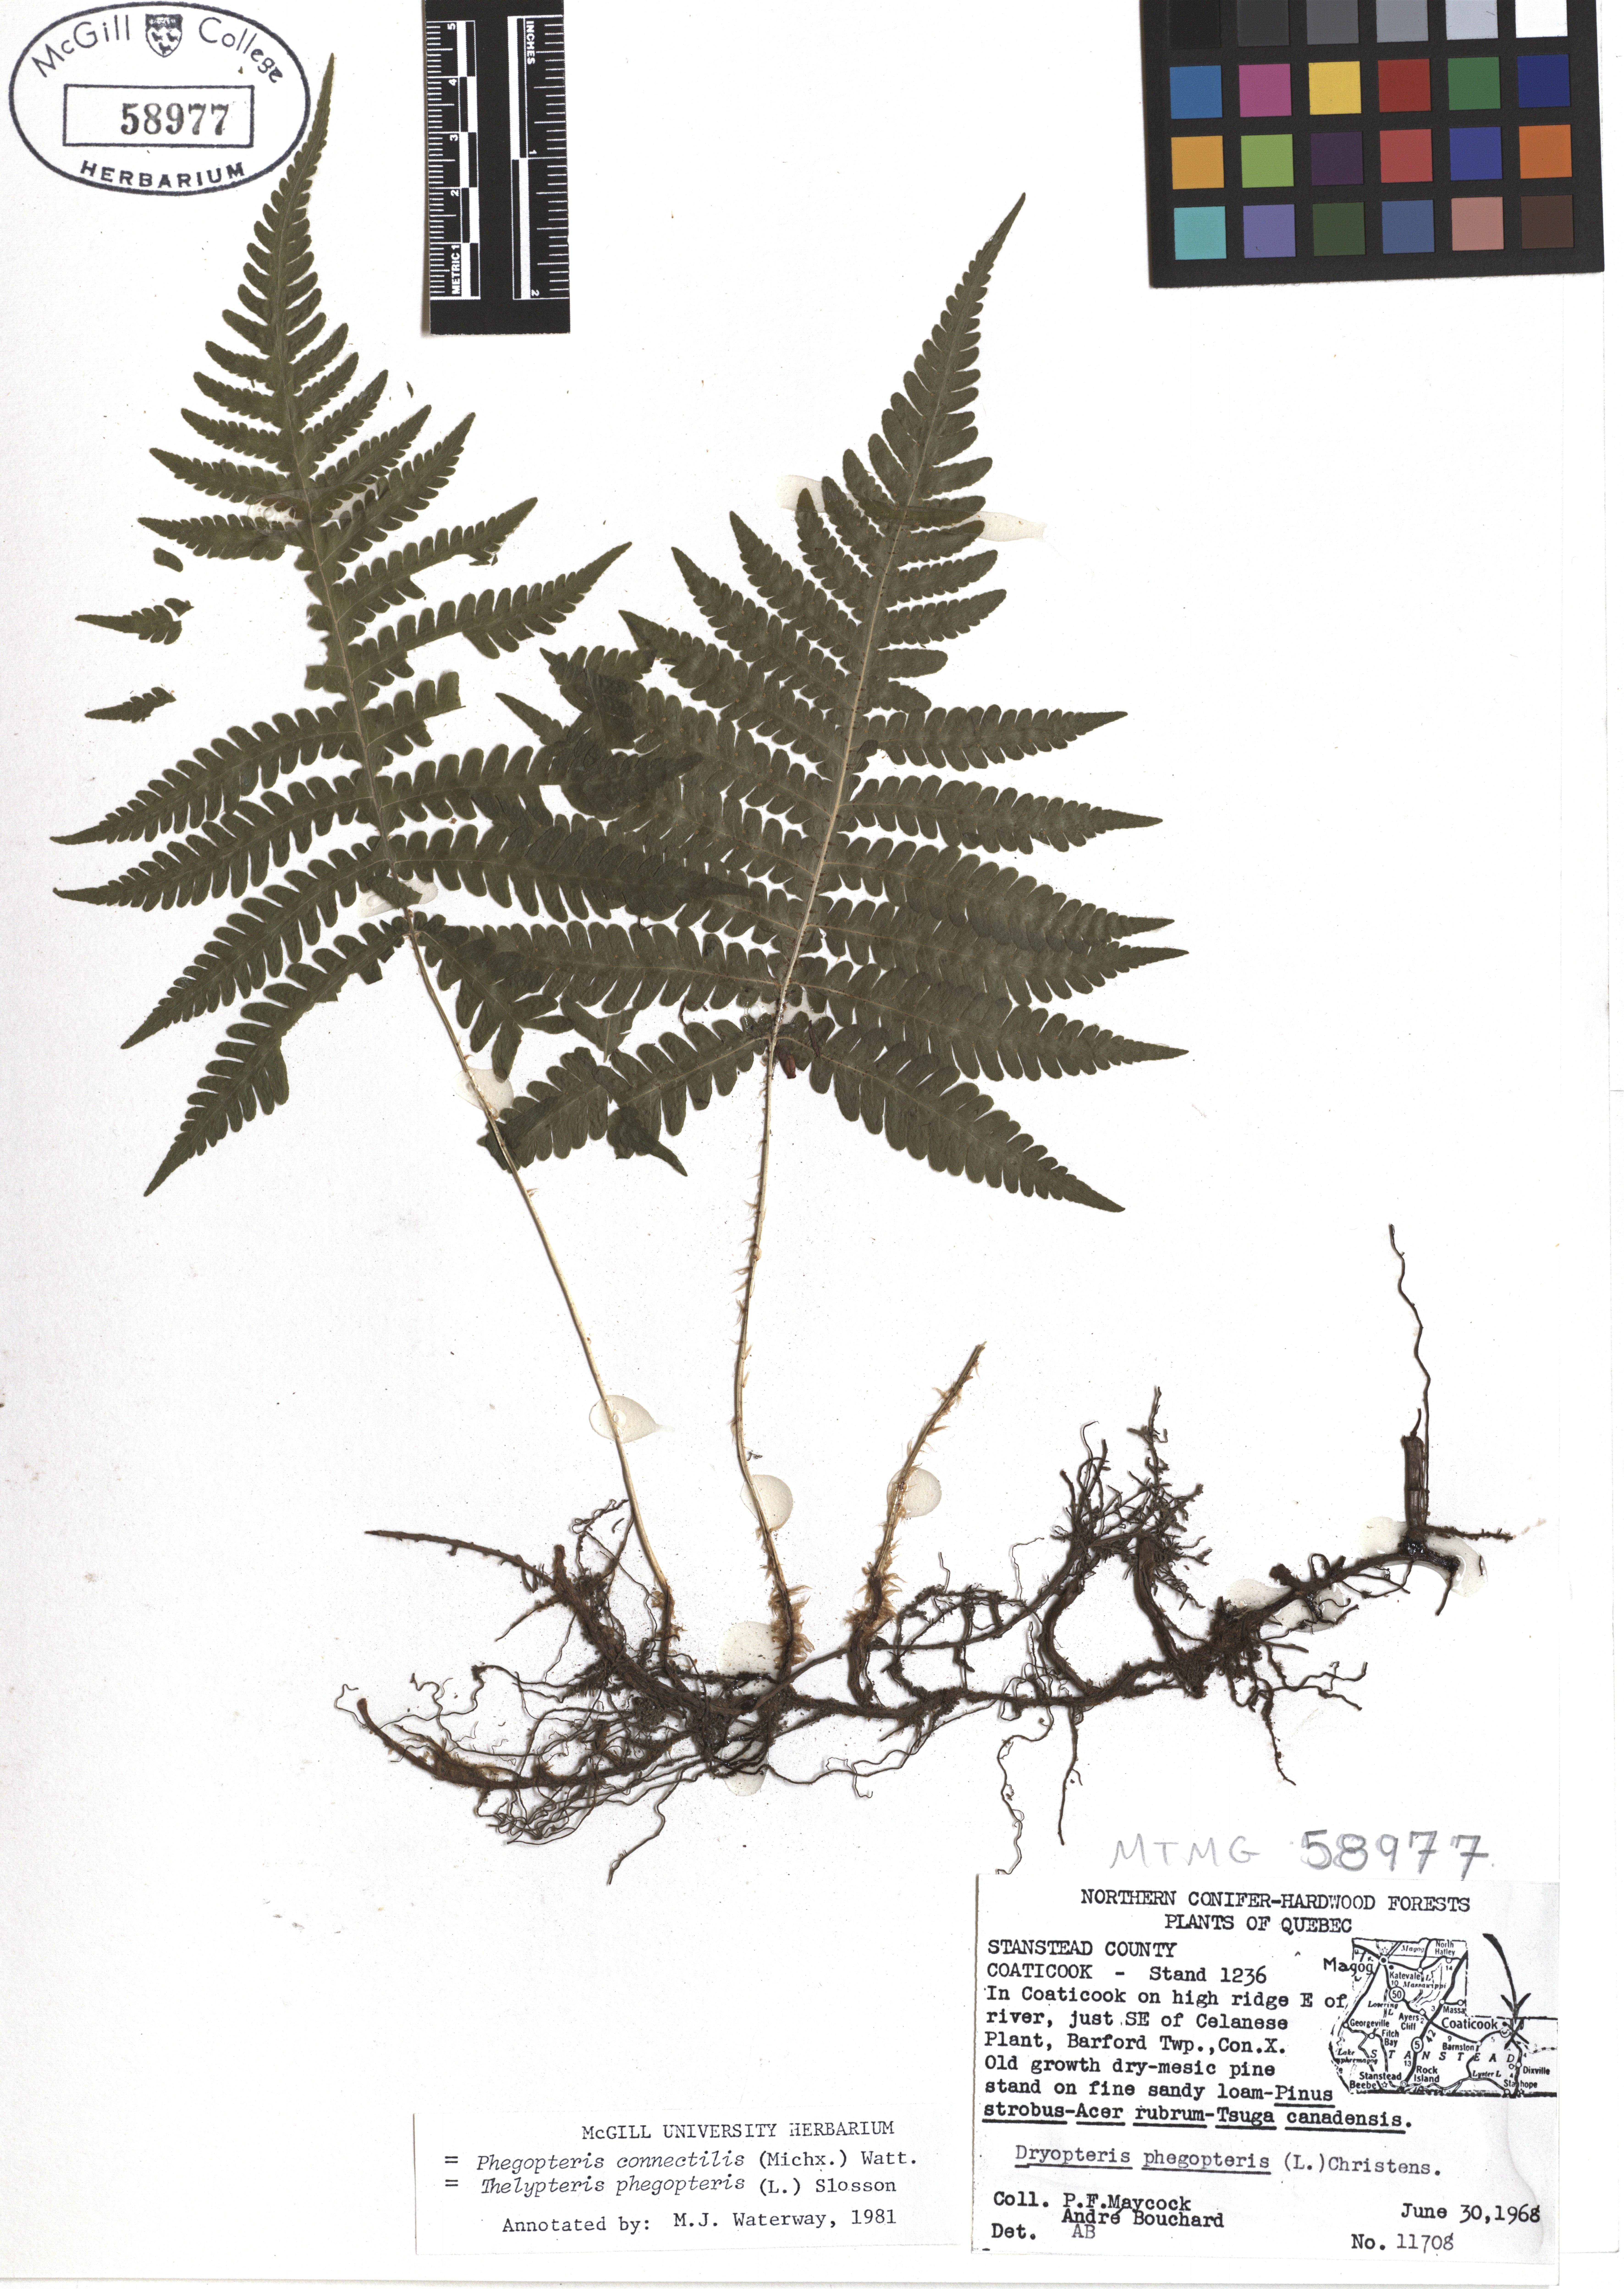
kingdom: Plantae
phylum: Tracheophyta
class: Polypodiopsida
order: Polypodiales
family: Thelypteridaceae
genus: Phegopteris
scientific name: Phegopteris connectilis
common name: Beech fern
